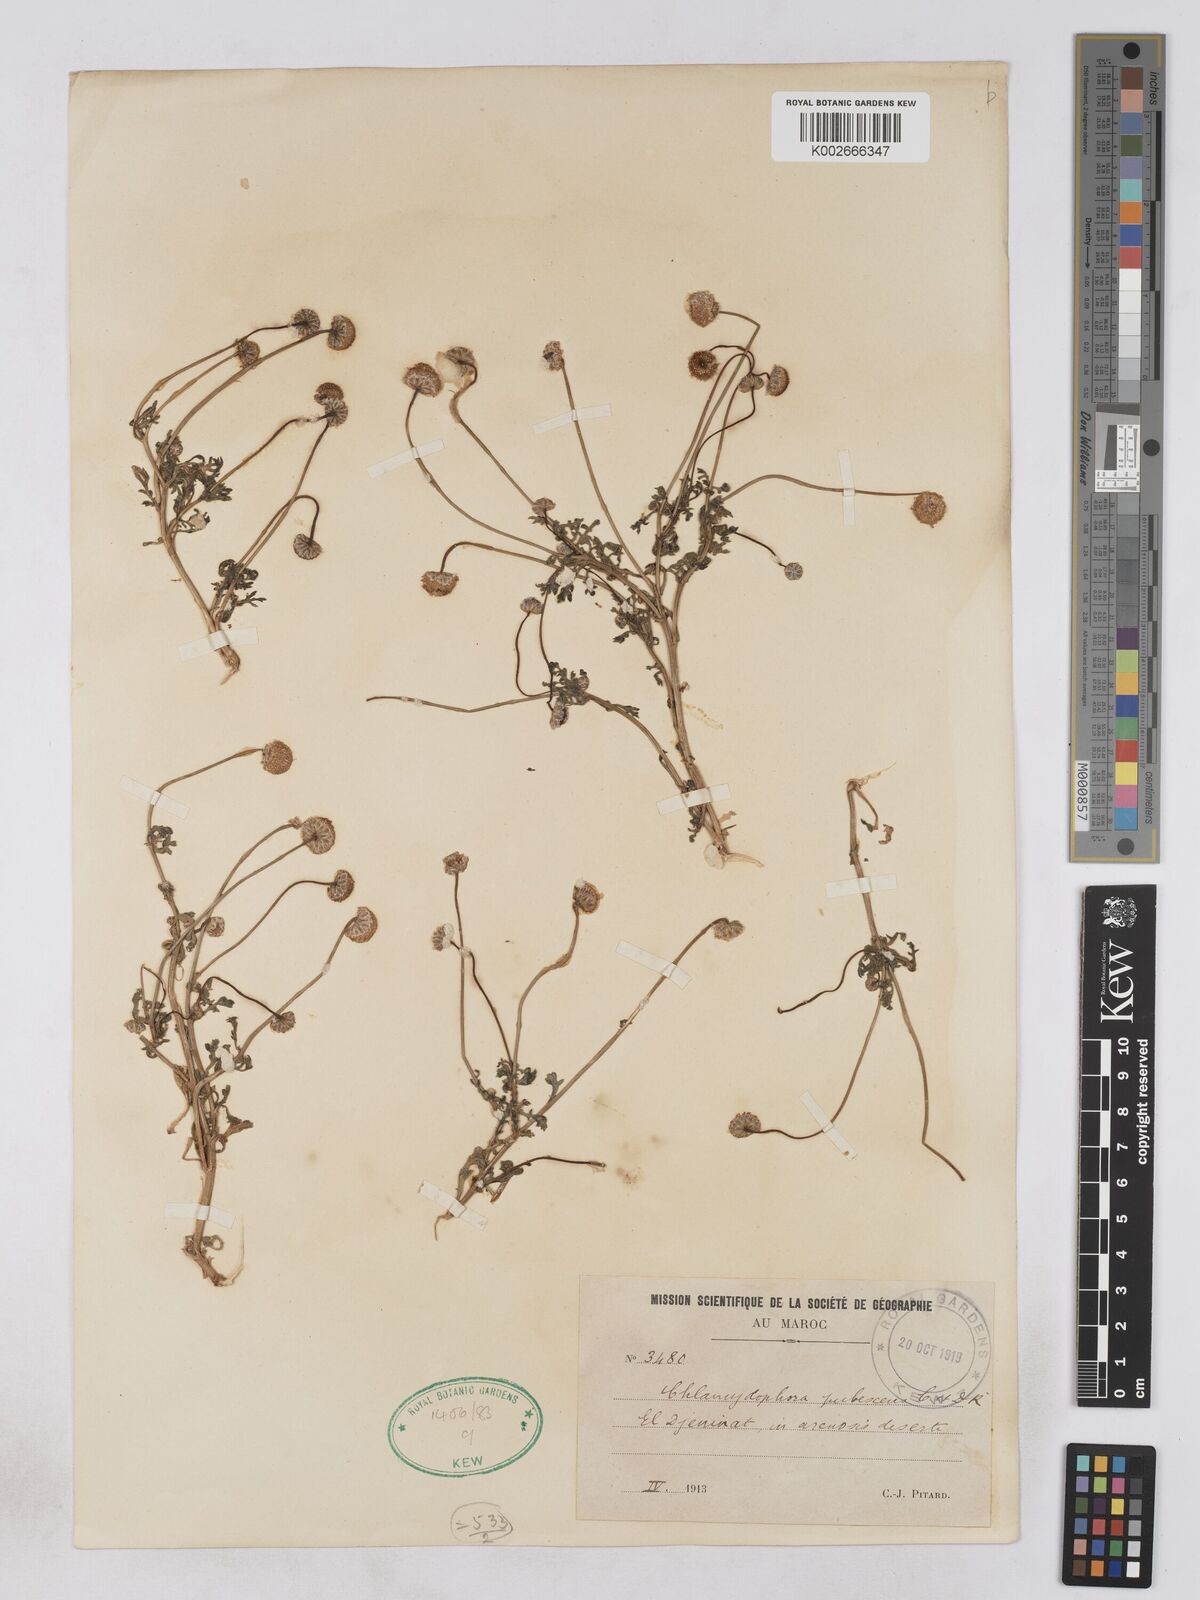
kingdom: Plantae
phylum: Tracheophyta
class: Magnoliopsida
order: Asterales
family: Asteraceae
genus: Otoglyphis
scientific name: Otoglyphis pubescens
